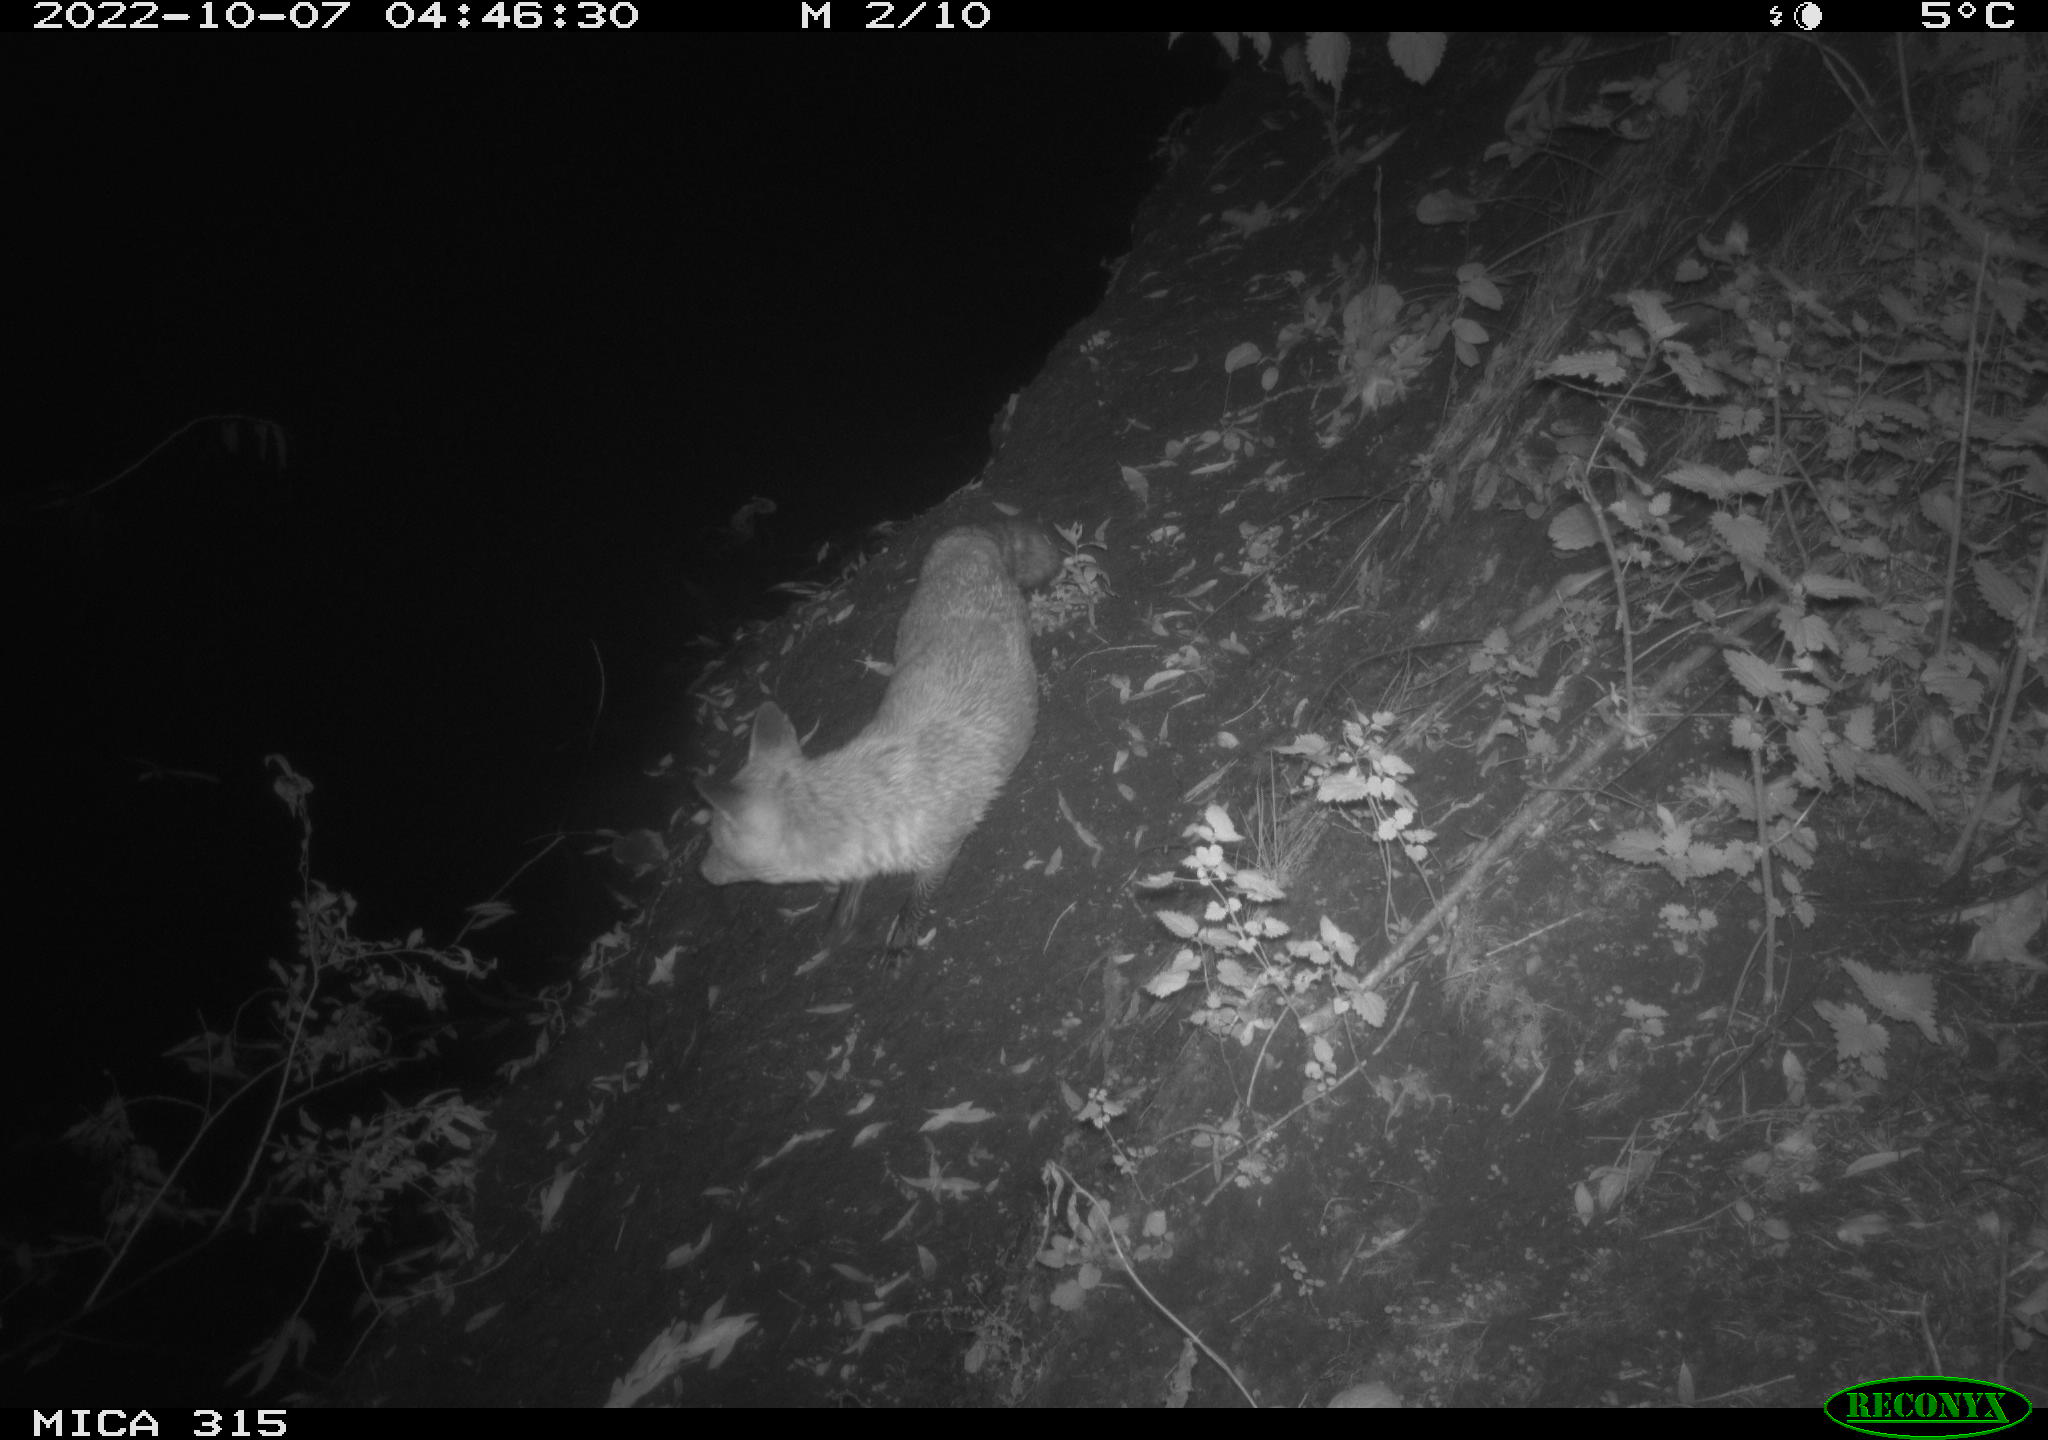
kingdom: Animalia
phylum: Chordata
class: Mammalia
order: Carnivora
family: Canidae
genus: Vulpes
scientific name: Vulpes vulpes
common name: Red fox
